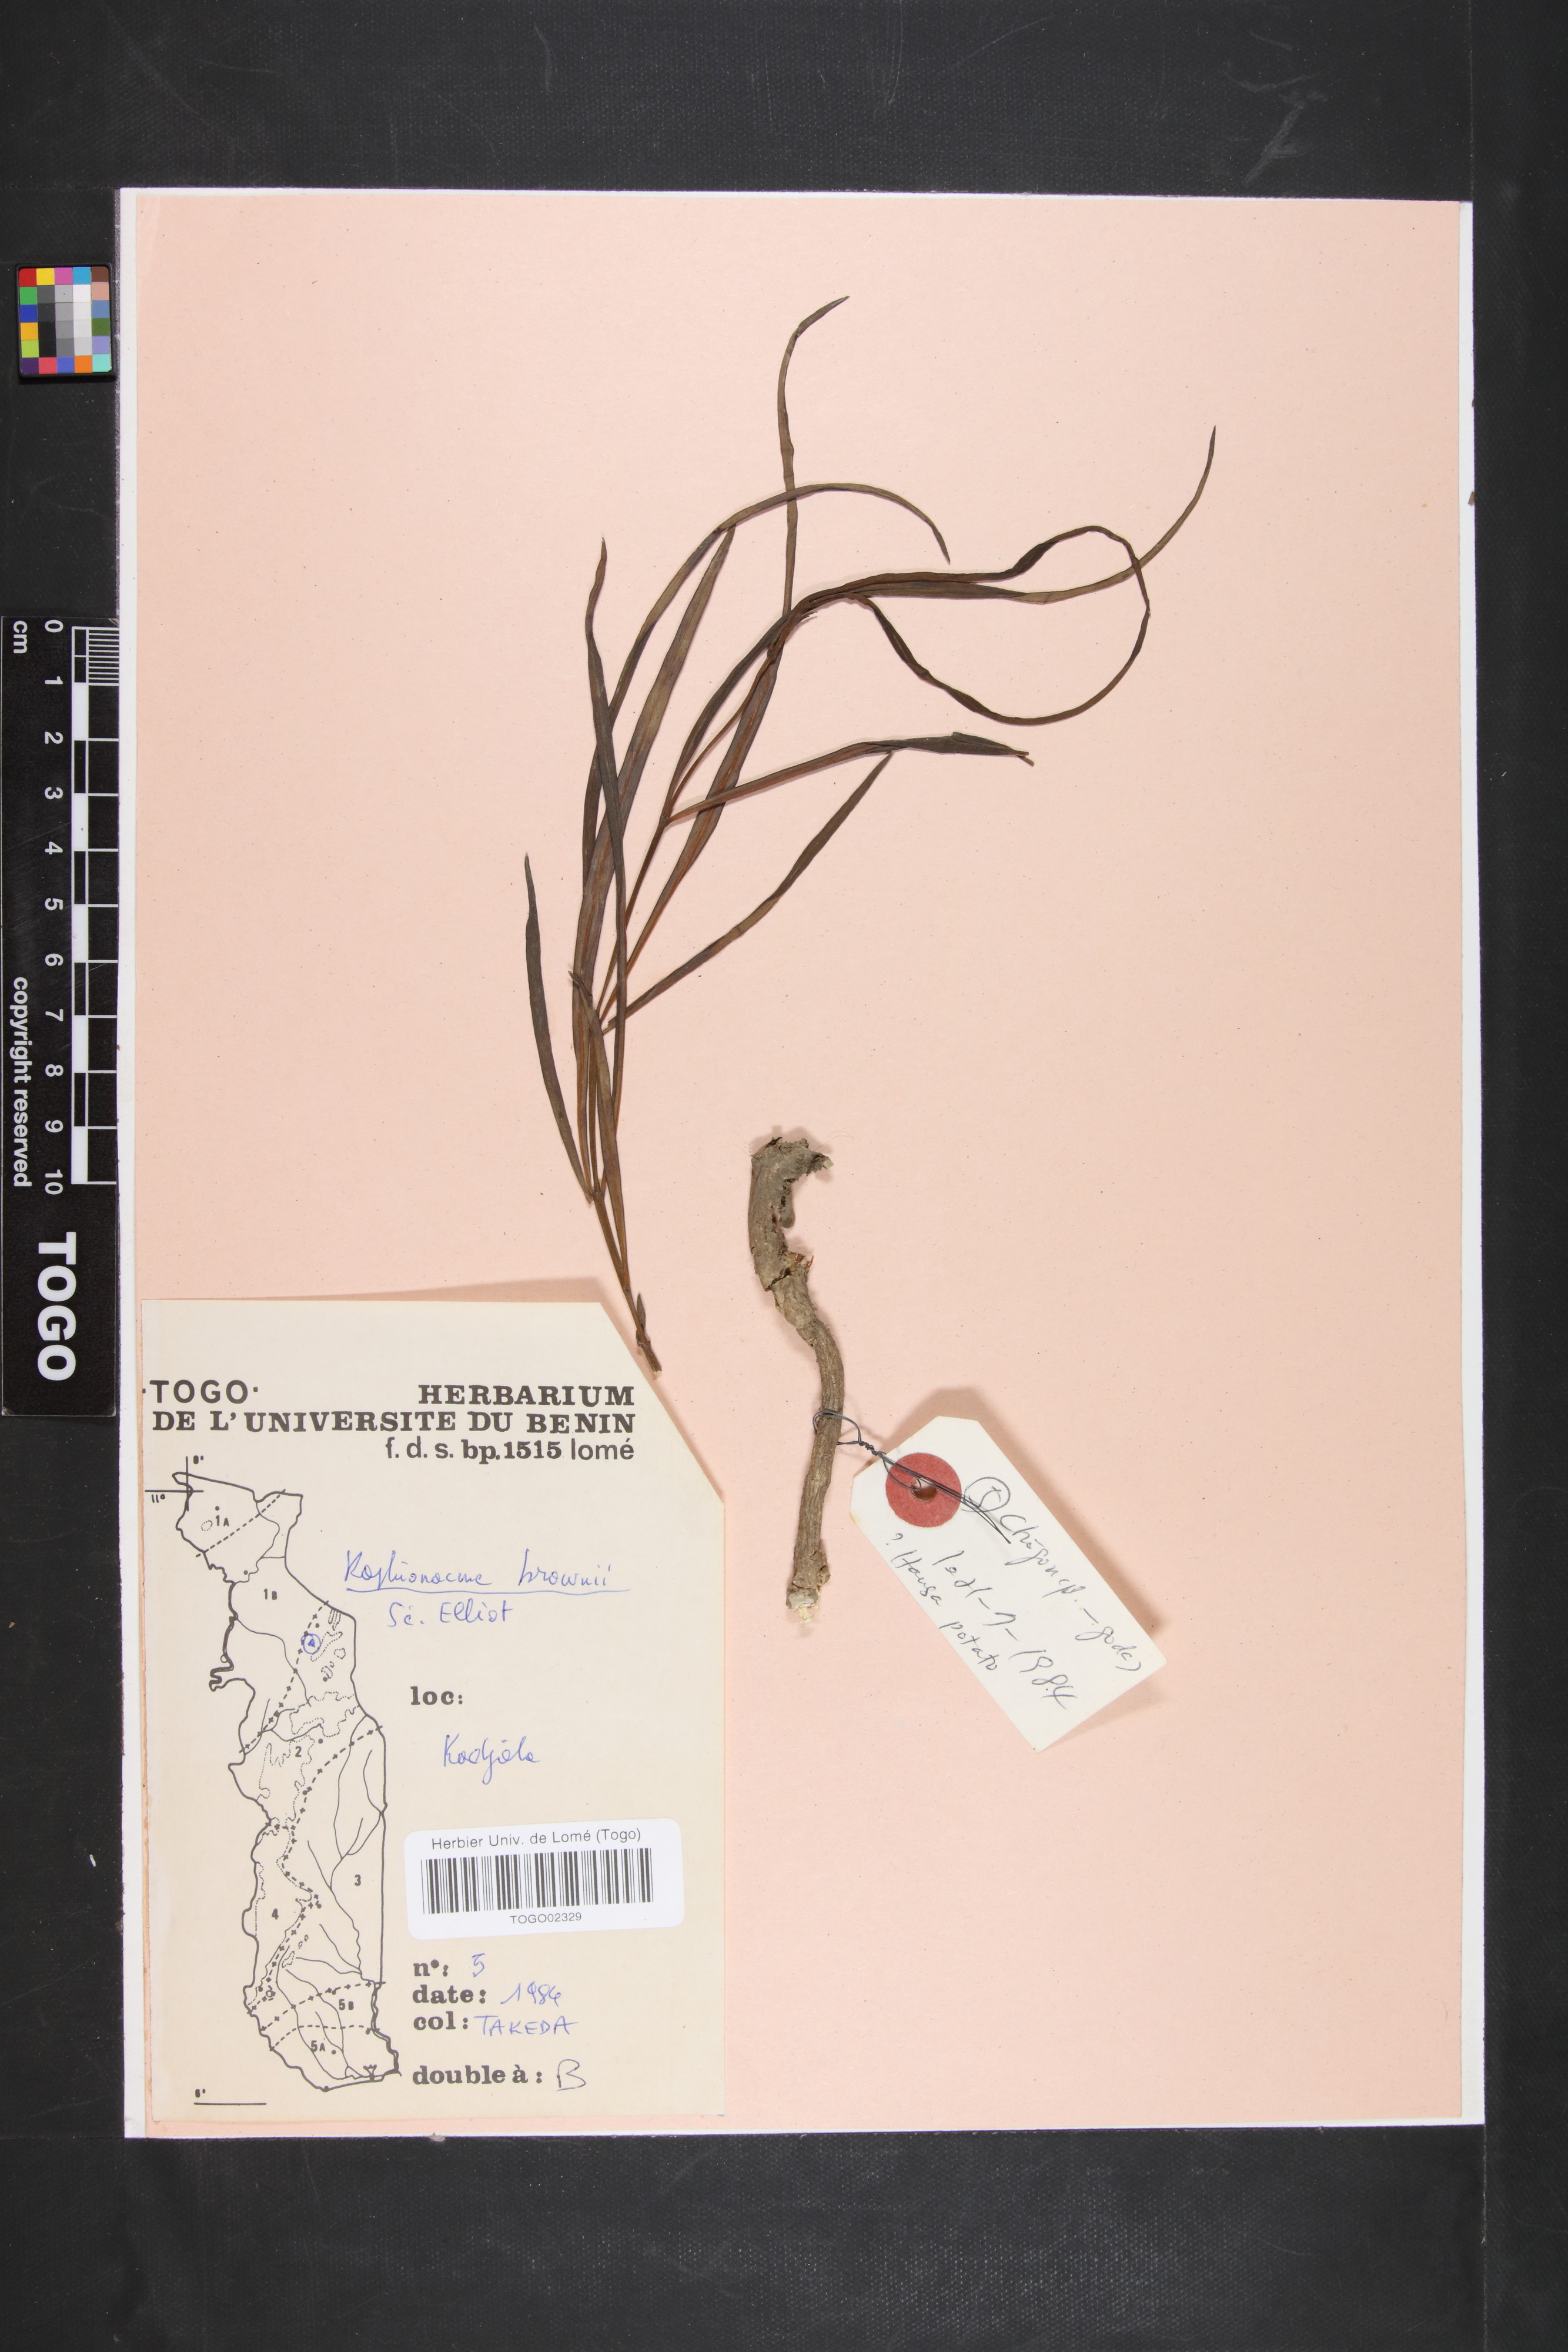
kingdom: Plantae
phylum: Tracheophyta
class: Magnoliopsida
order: Gentianales
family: Apocynaceae
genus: Raphionacme
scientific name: Raphionacme brownii
